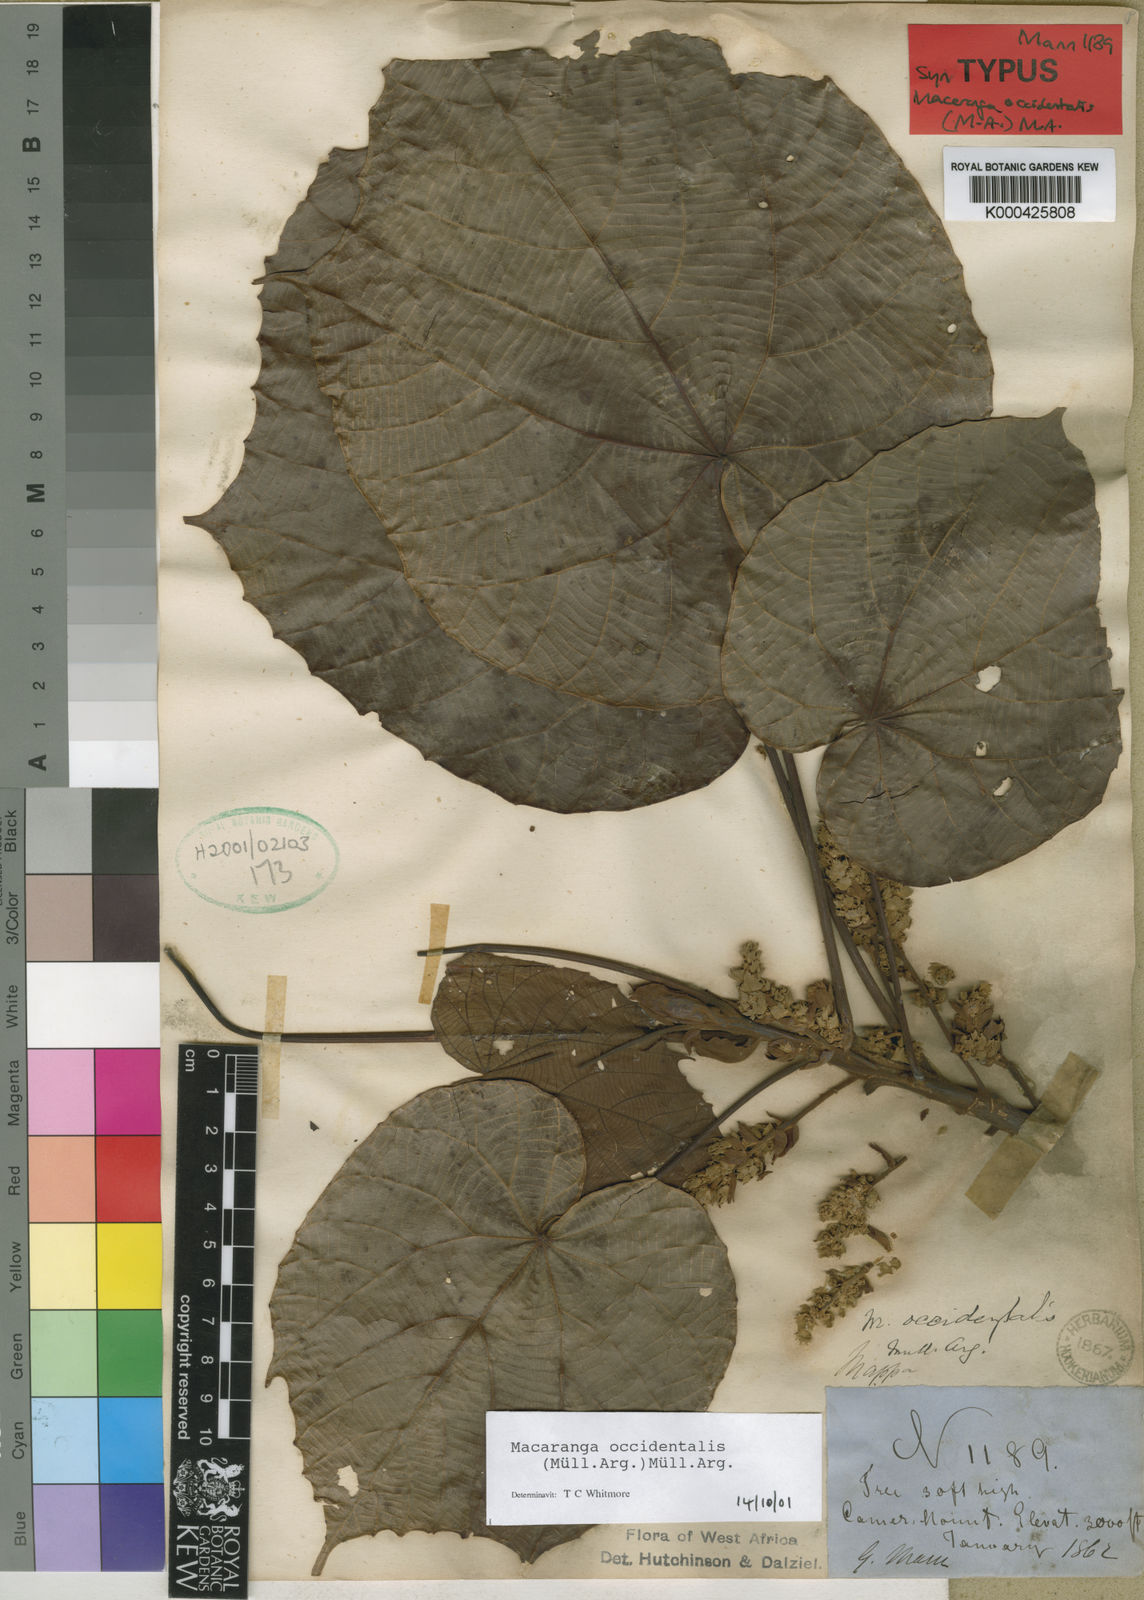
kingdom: Plantae
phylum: Tracheophyta
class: Magnoliopsida
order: Malpighiales
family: Euphorbiaceae
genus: Macaranga
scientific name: Macaranga
